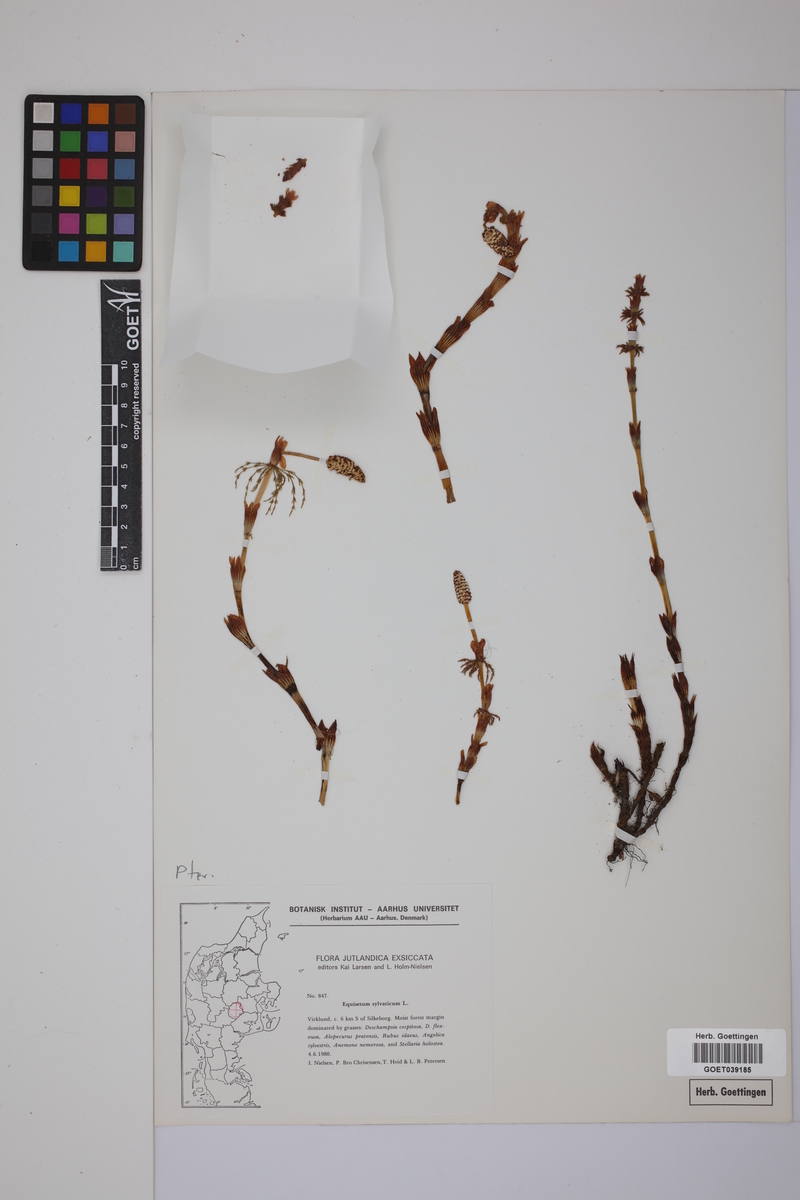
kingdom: Plantae
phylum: Tracheophyta
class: Polypodiopsida
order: Equisetales
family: Equisetaceae
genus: Equisetum
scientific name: Equisetum sylvaticum
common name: Wood horsetail
